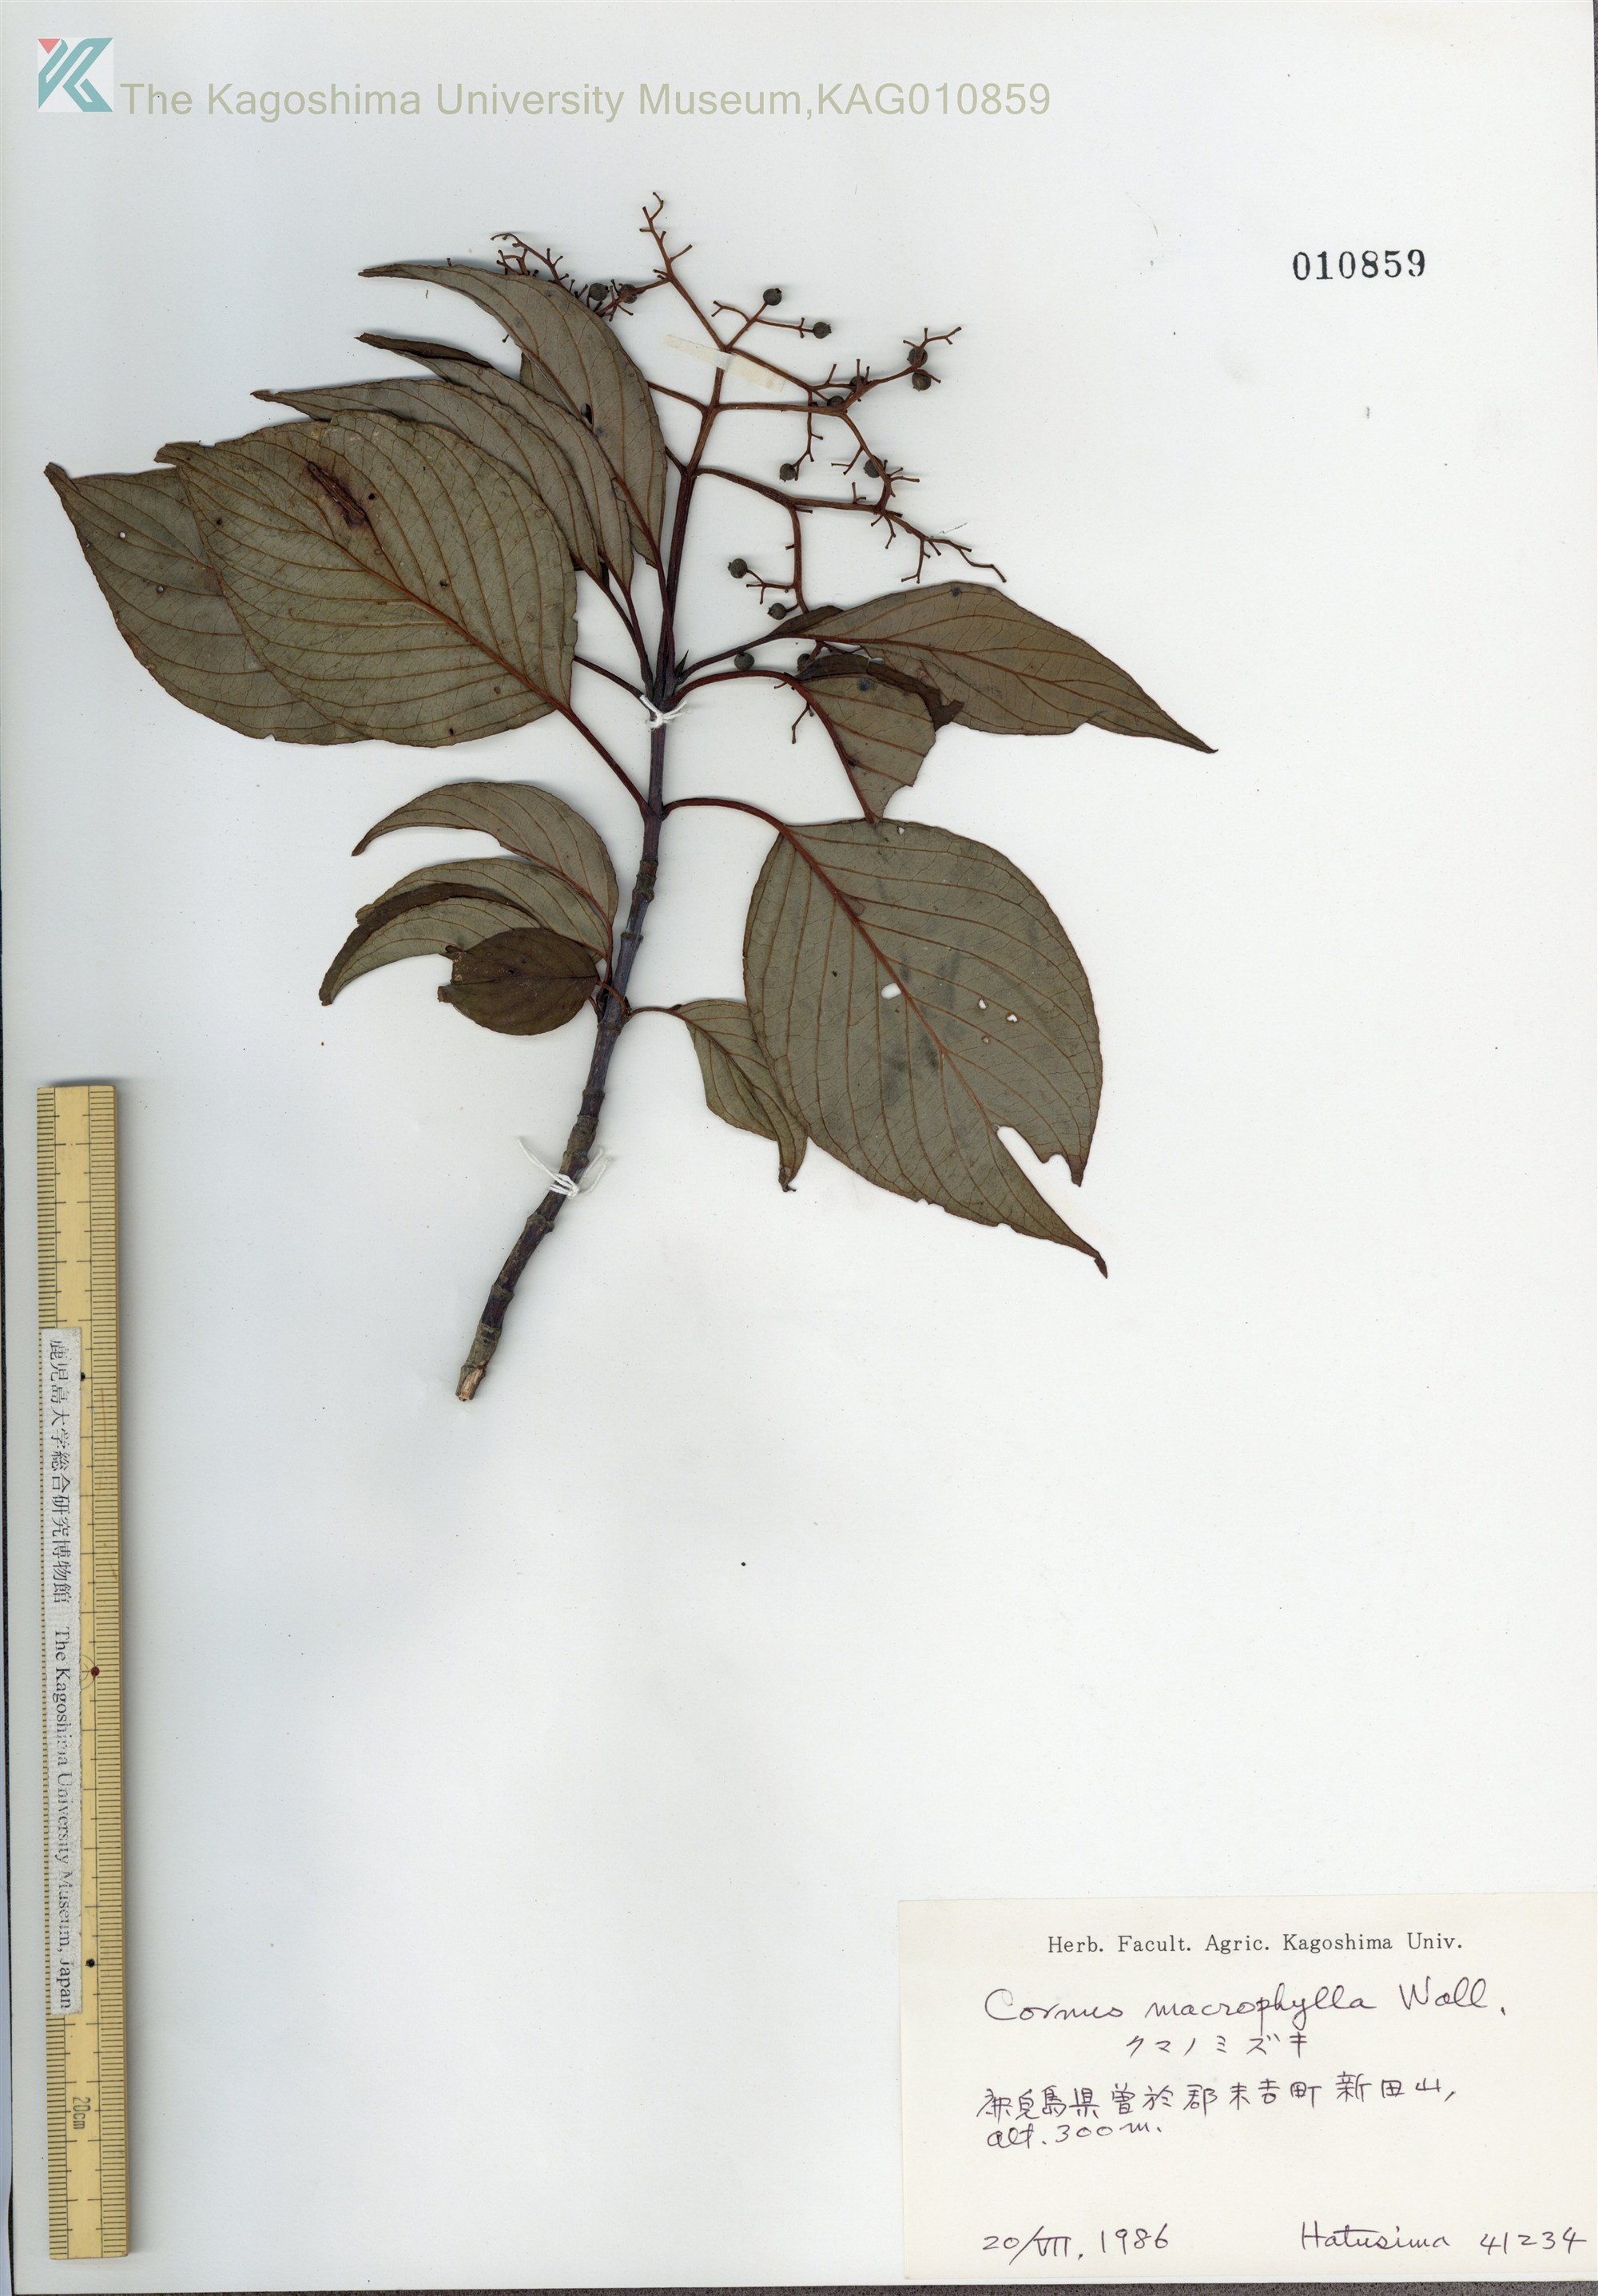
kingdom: Plantae
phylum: Tracheophyta
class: Magnoliopsida
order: Cornales
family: Cornaceae
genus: Cornus
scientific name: Cornus macrophylla
